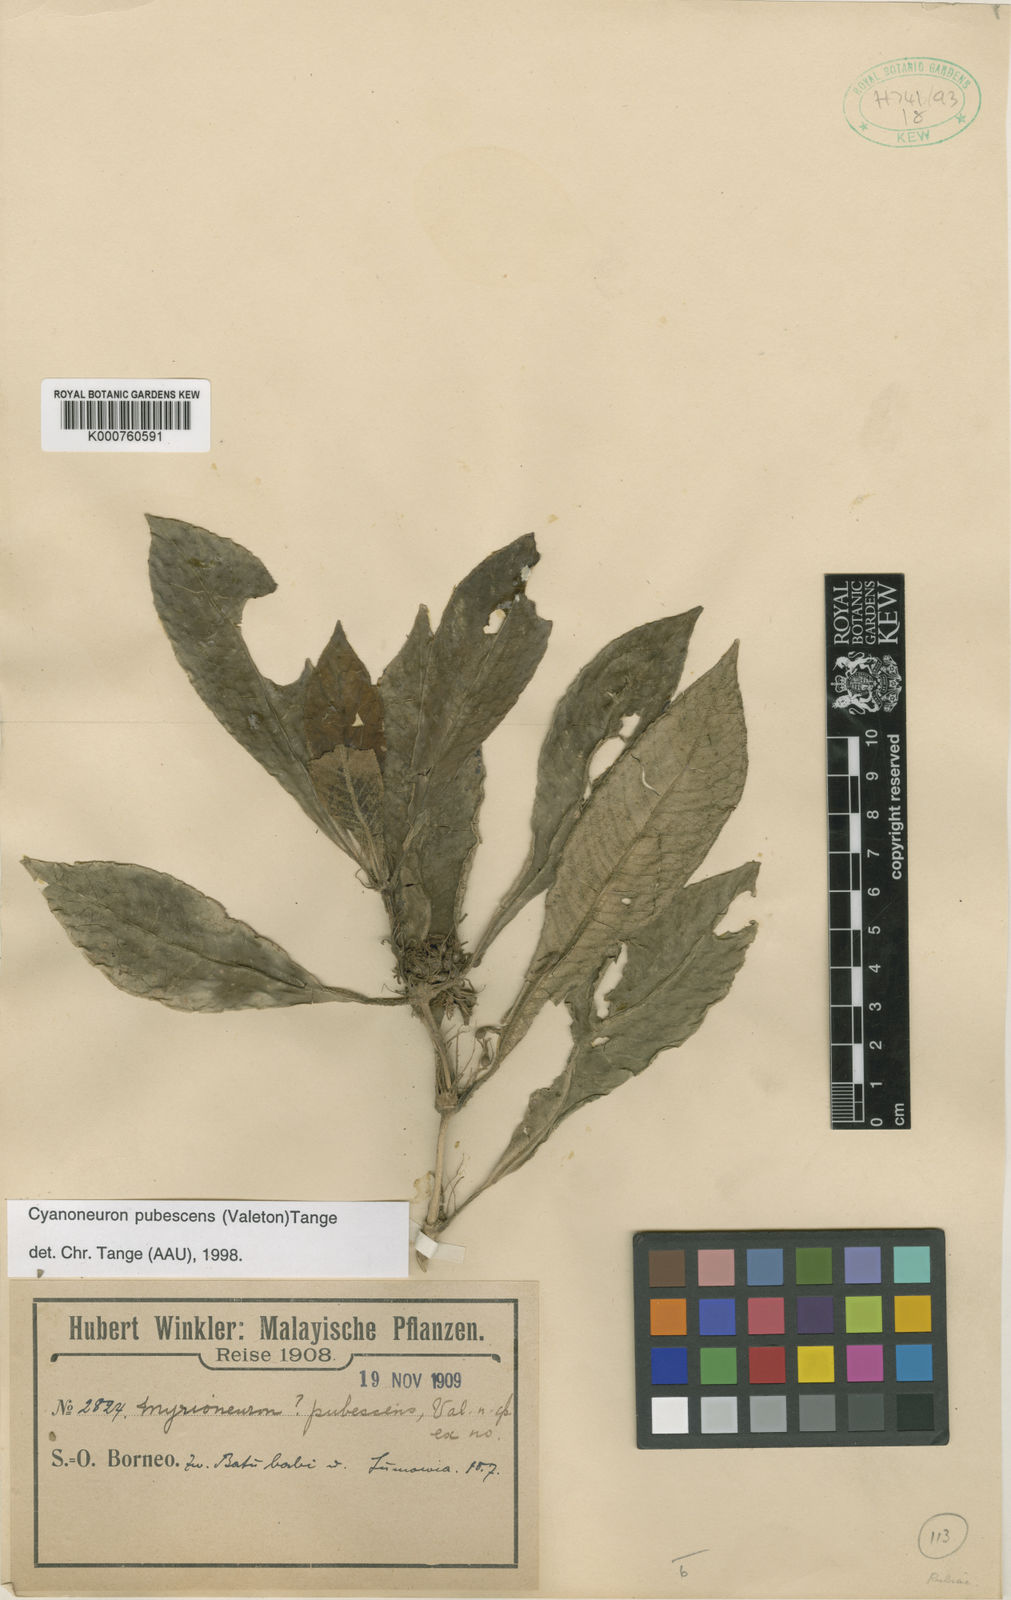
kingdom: Plantae
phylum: Tracheophyta
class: Magnoliopsida
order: Gentianales
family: Rubiaceae
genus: Cyanoneuron
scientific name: Cyanoneuron pubescens
